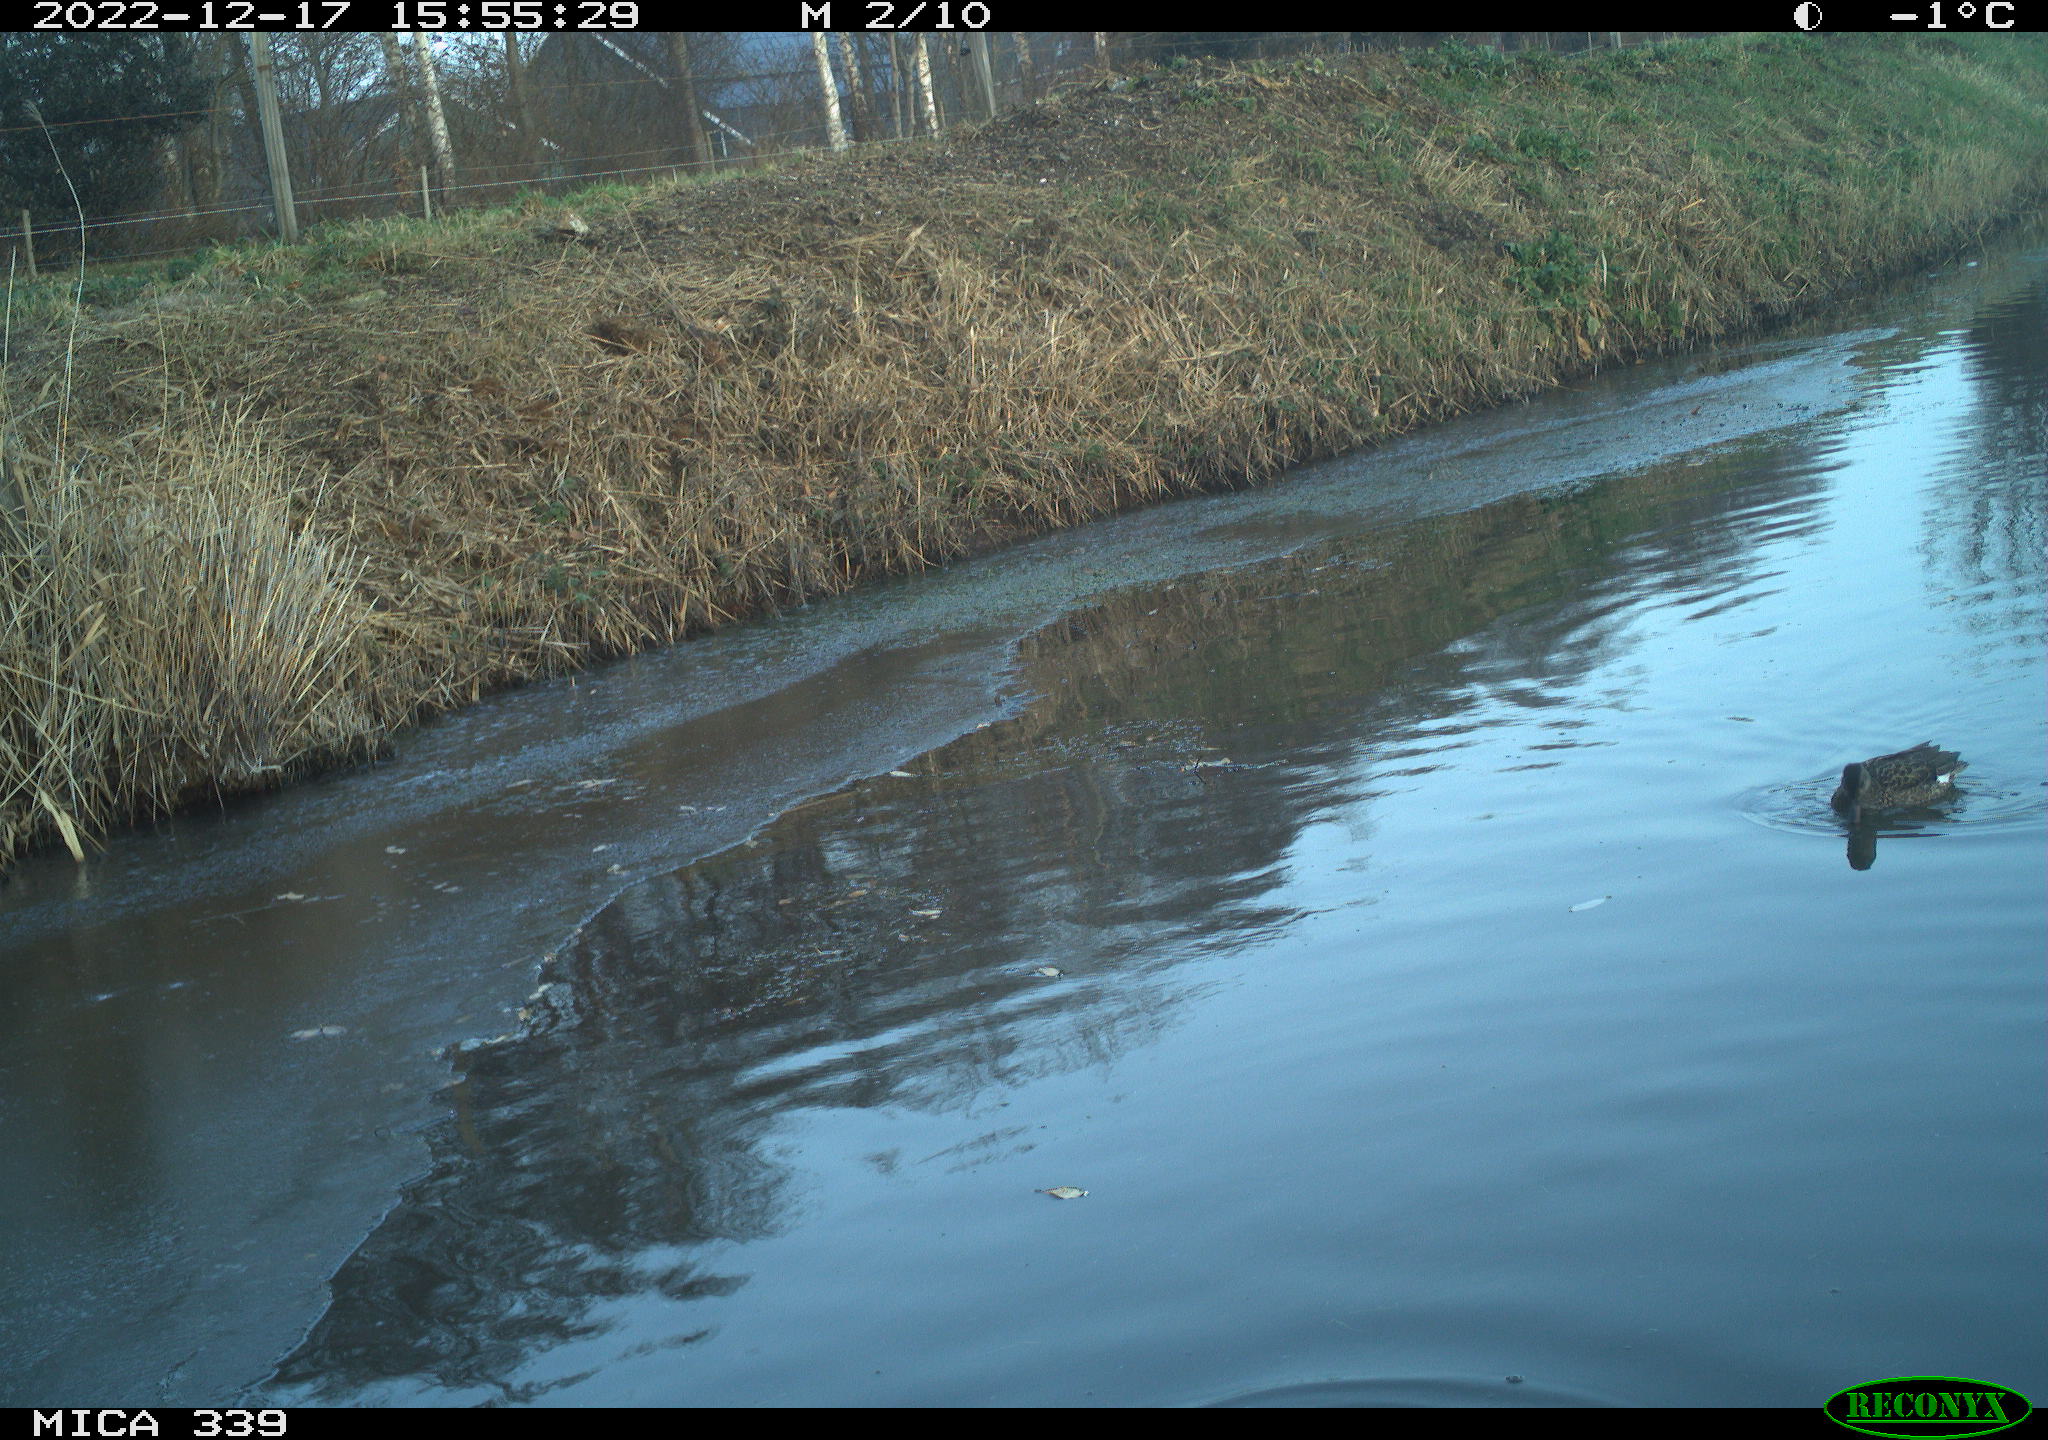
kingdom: Animalia
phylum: Chordata
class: Aves
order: Anseriformes
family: Anatidae
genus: Anas
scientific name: Anas
